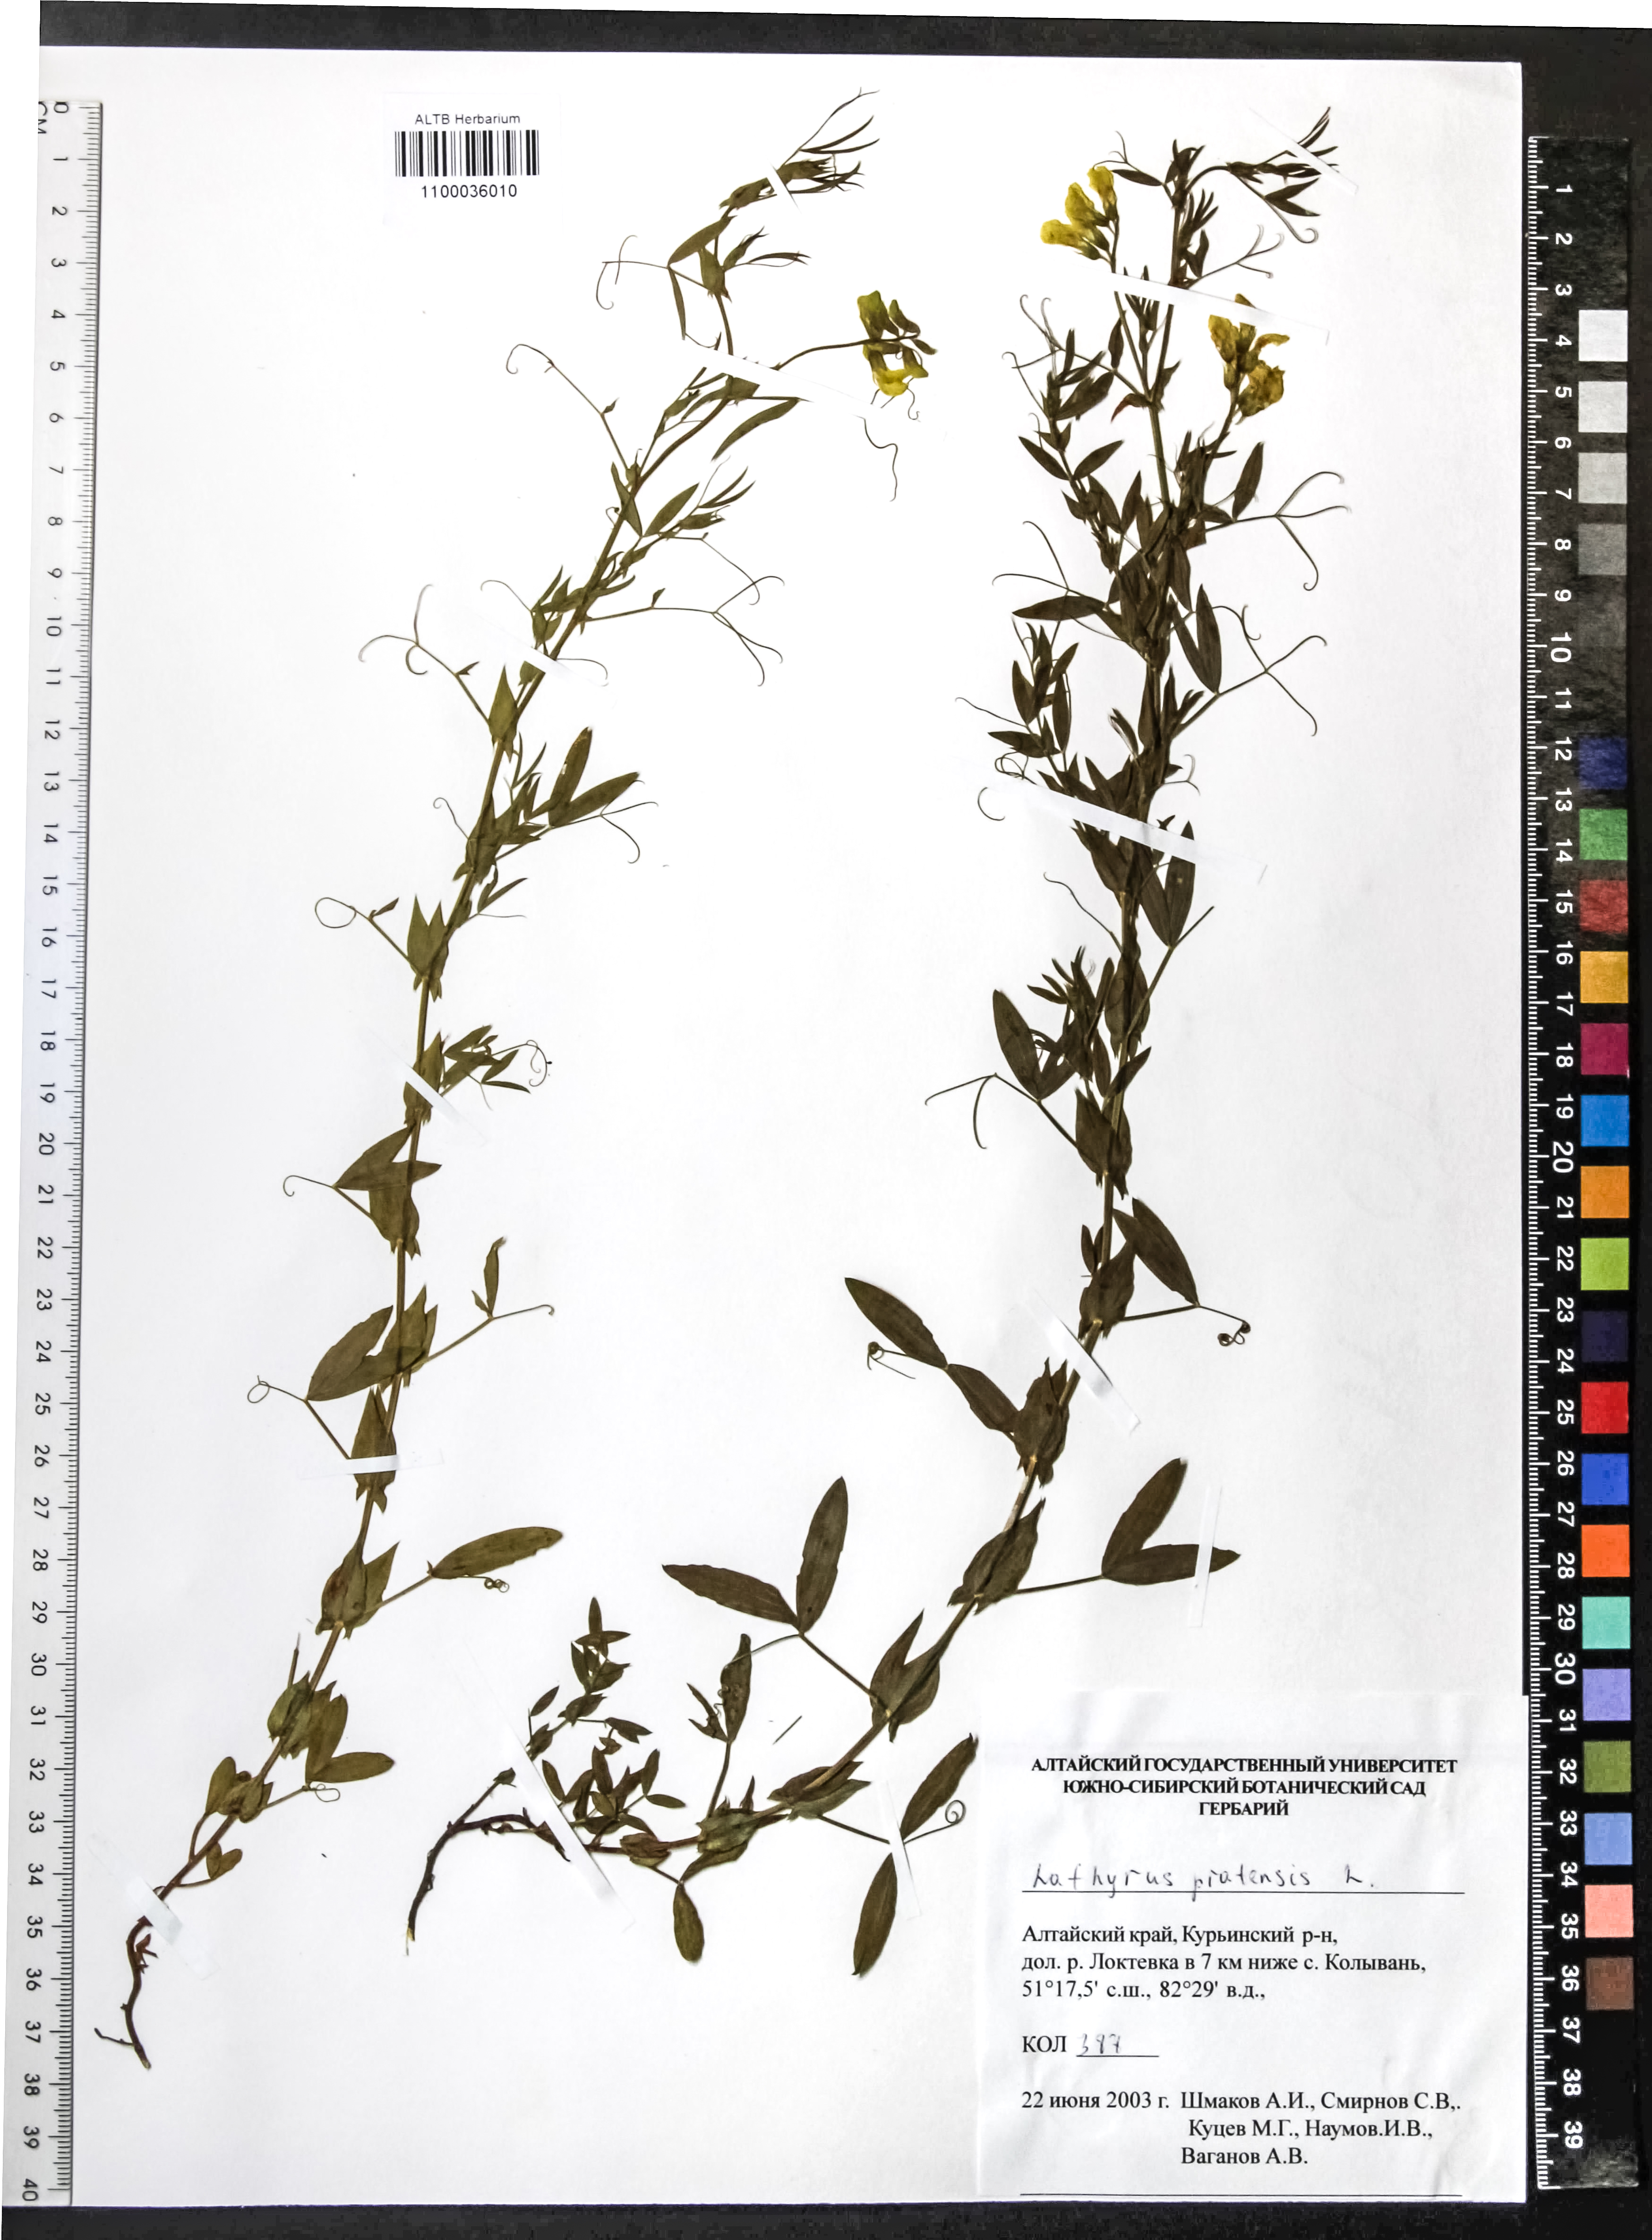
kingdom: Plantae
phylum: Tracheophyta
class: Magnoliopsida
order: Fabales
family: Fabaceae
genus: Lathyrus
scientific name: Lathyrus pratensis
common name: Meadow vetchling
